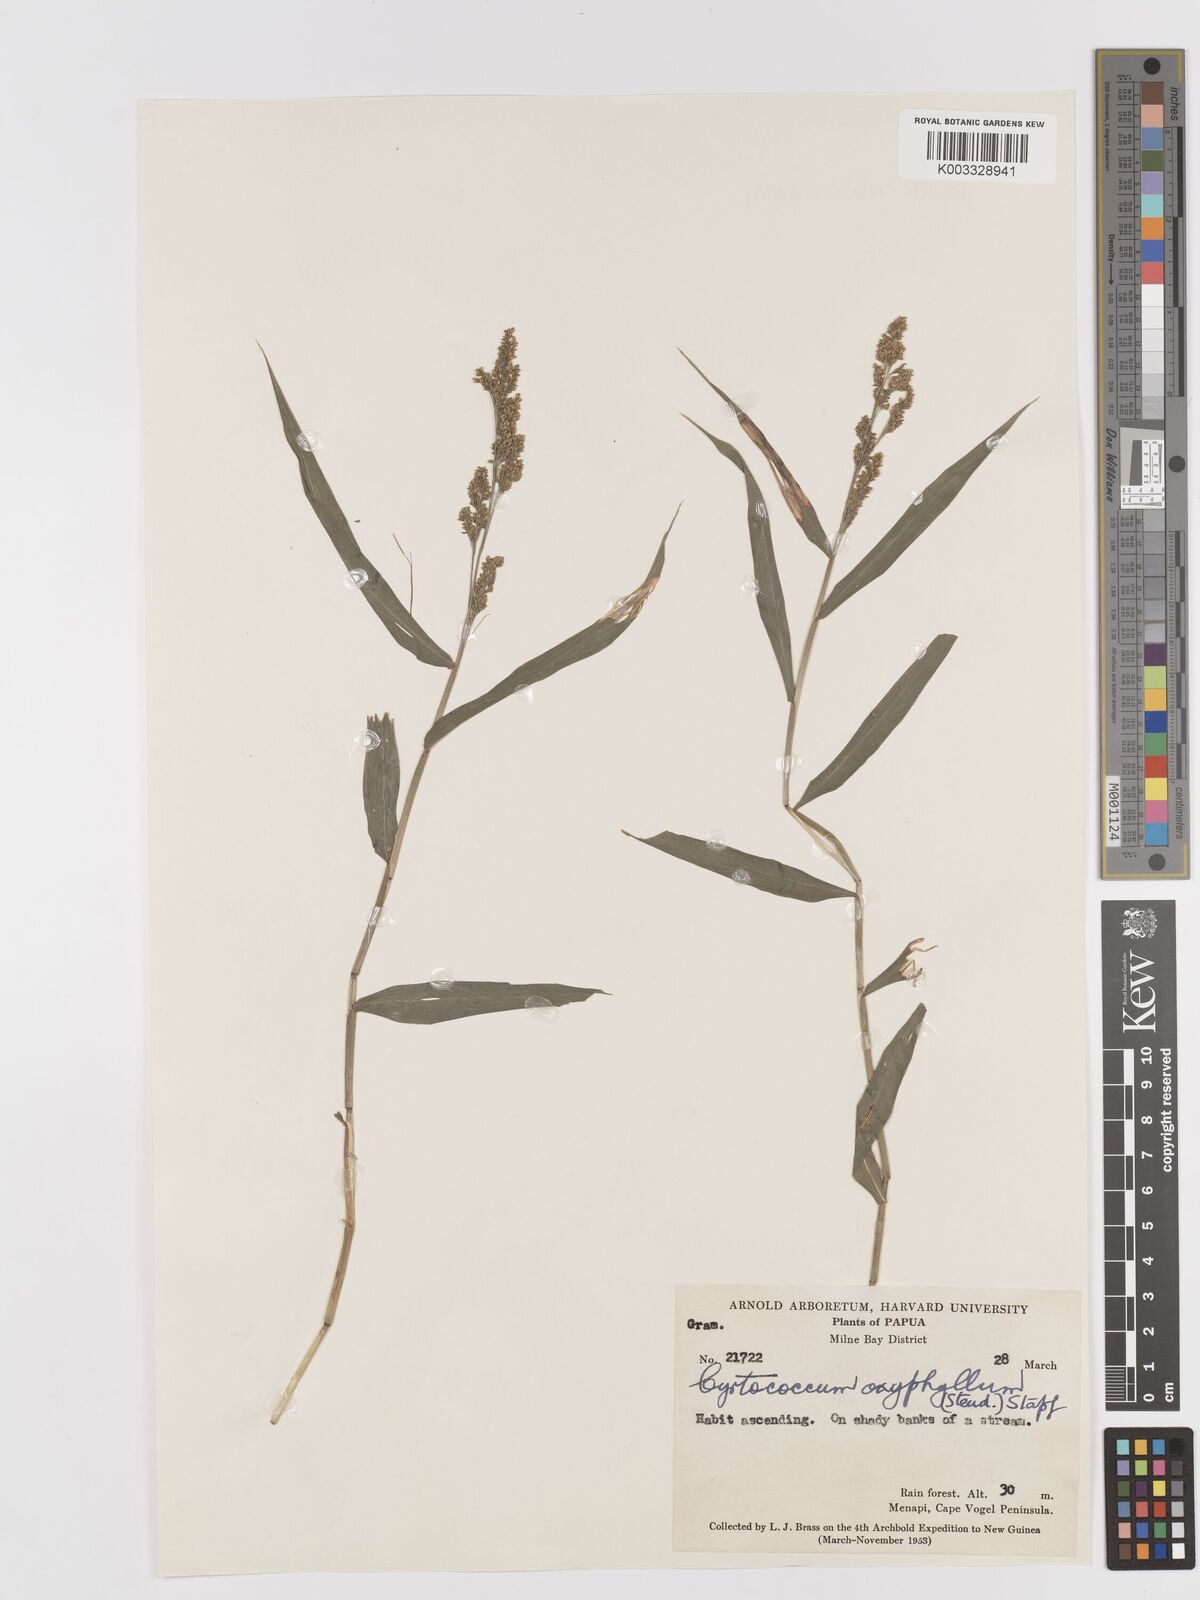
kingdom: Plantae
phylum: Tracheophyta
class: Liliopsida
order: Poales
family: Poaceae
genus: Cyrtococcum
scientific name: Cyrtococcum oxyphyllum
